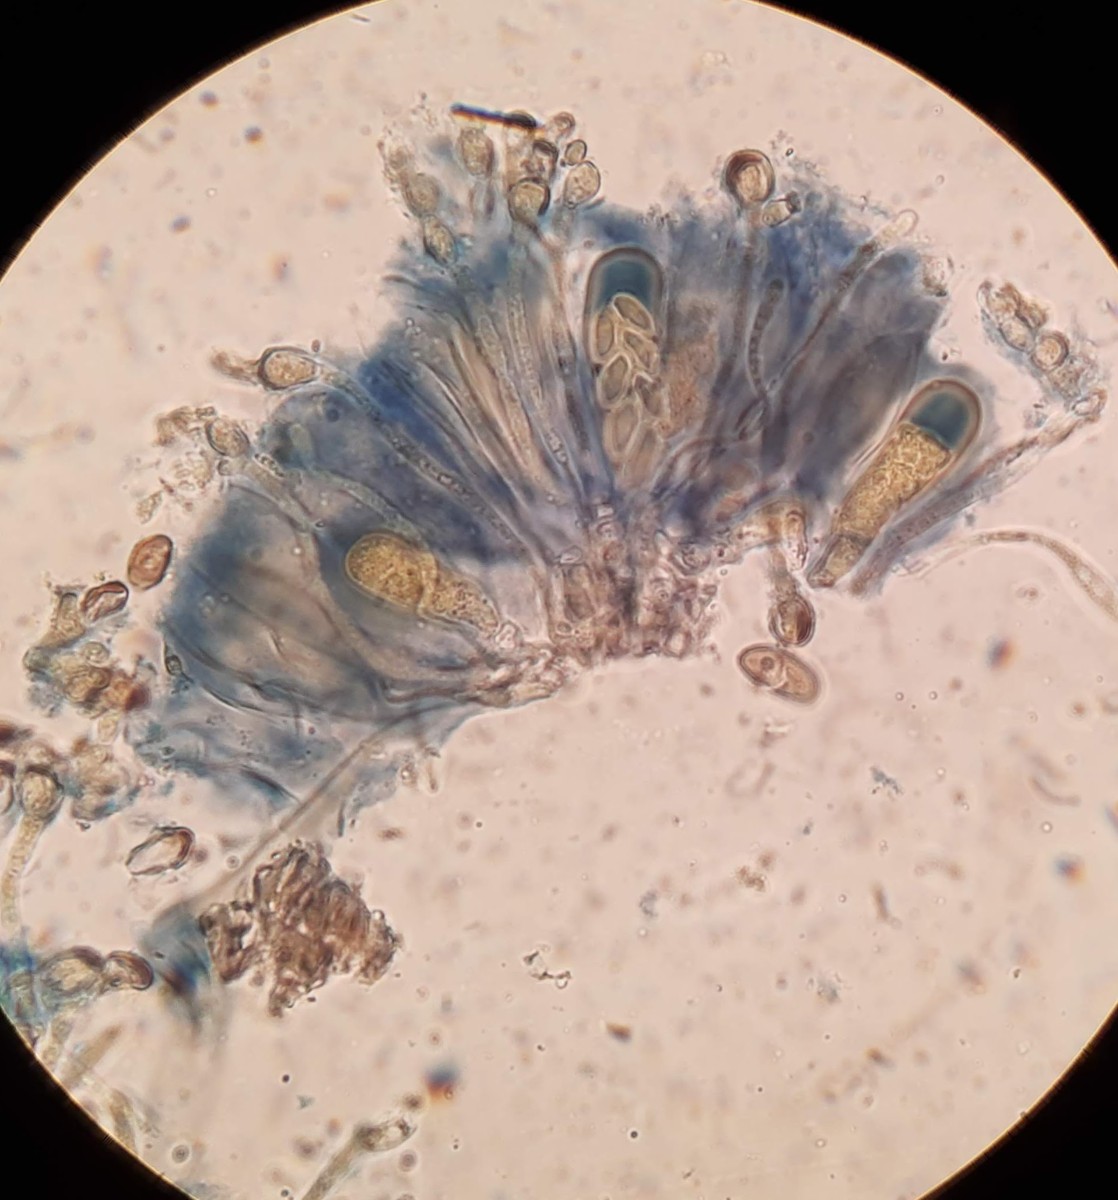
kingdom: Fungi
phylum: Ascomycota
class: Lecanoromycetes
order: Lecanorales
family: Dactylosporaceae
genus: Dactylospora
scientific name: Dactylospora
